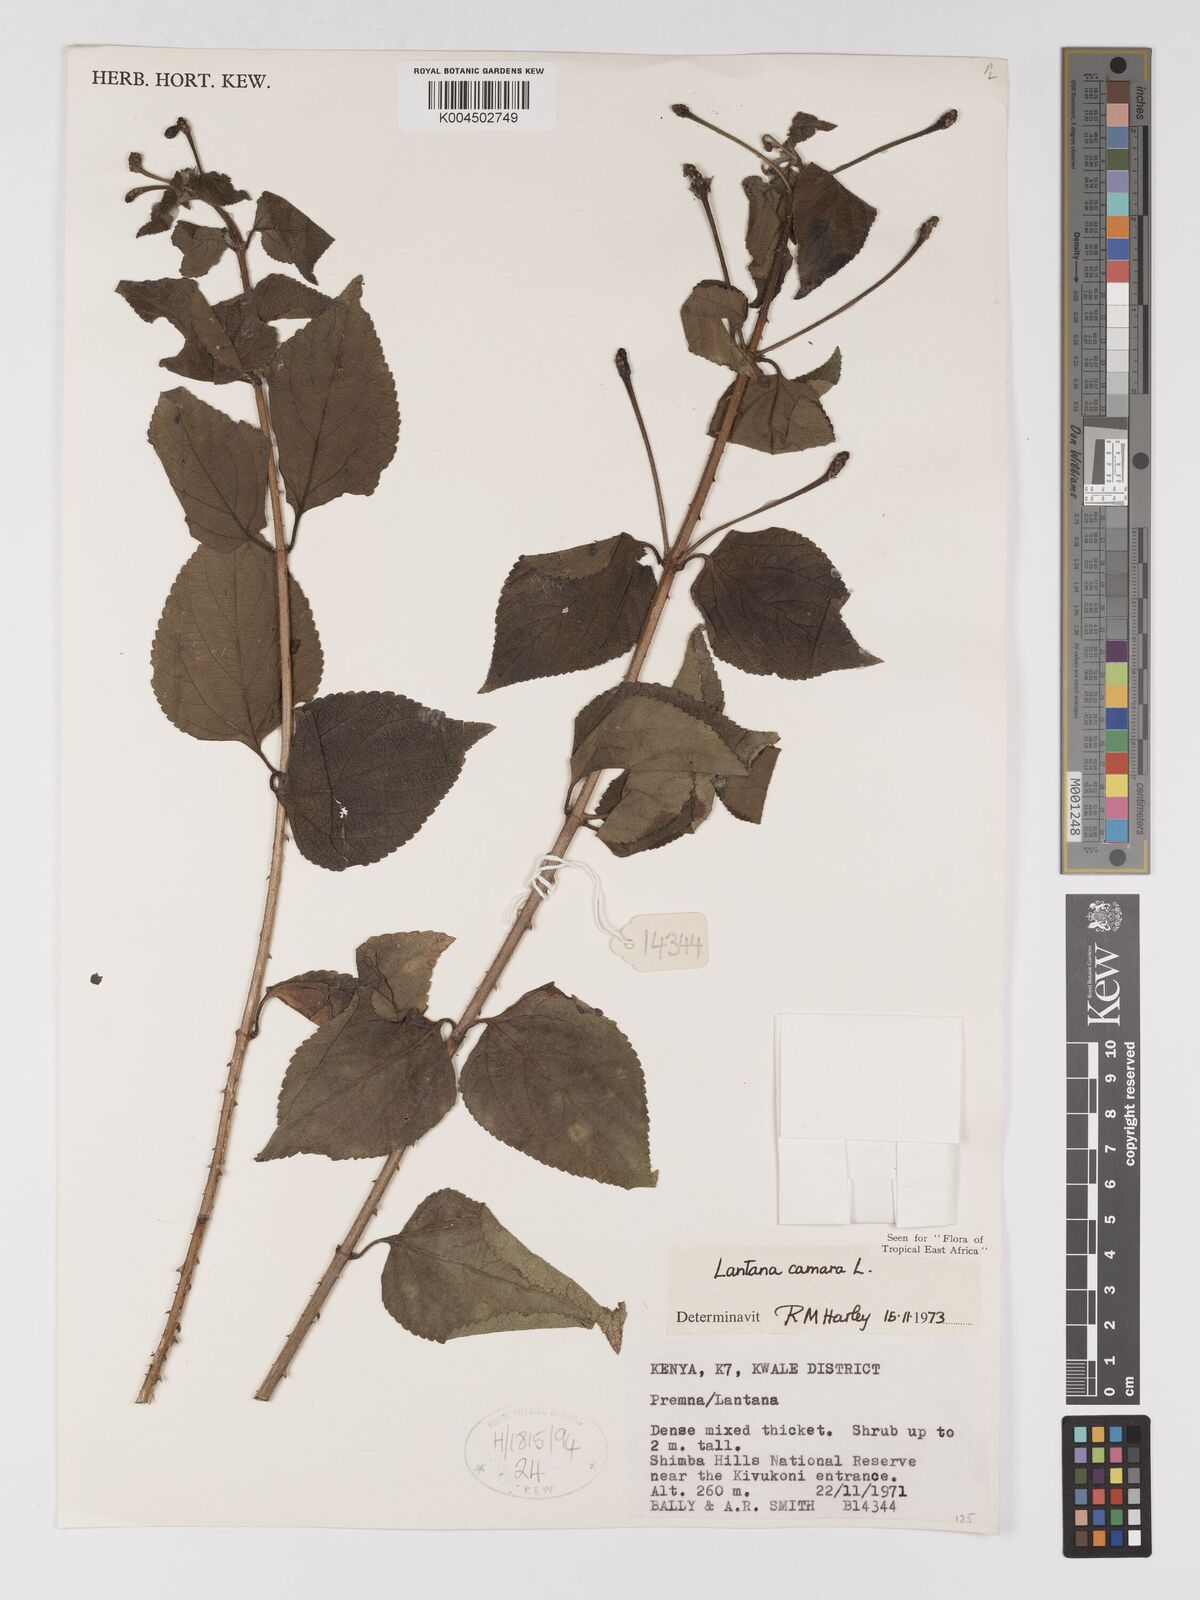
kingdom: Plantae
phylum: Tracheophyta
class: Magnoliopsida
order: Lamiales
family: Verbenaceae
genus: Lantana
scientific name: Lantana camara
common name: Lantana
